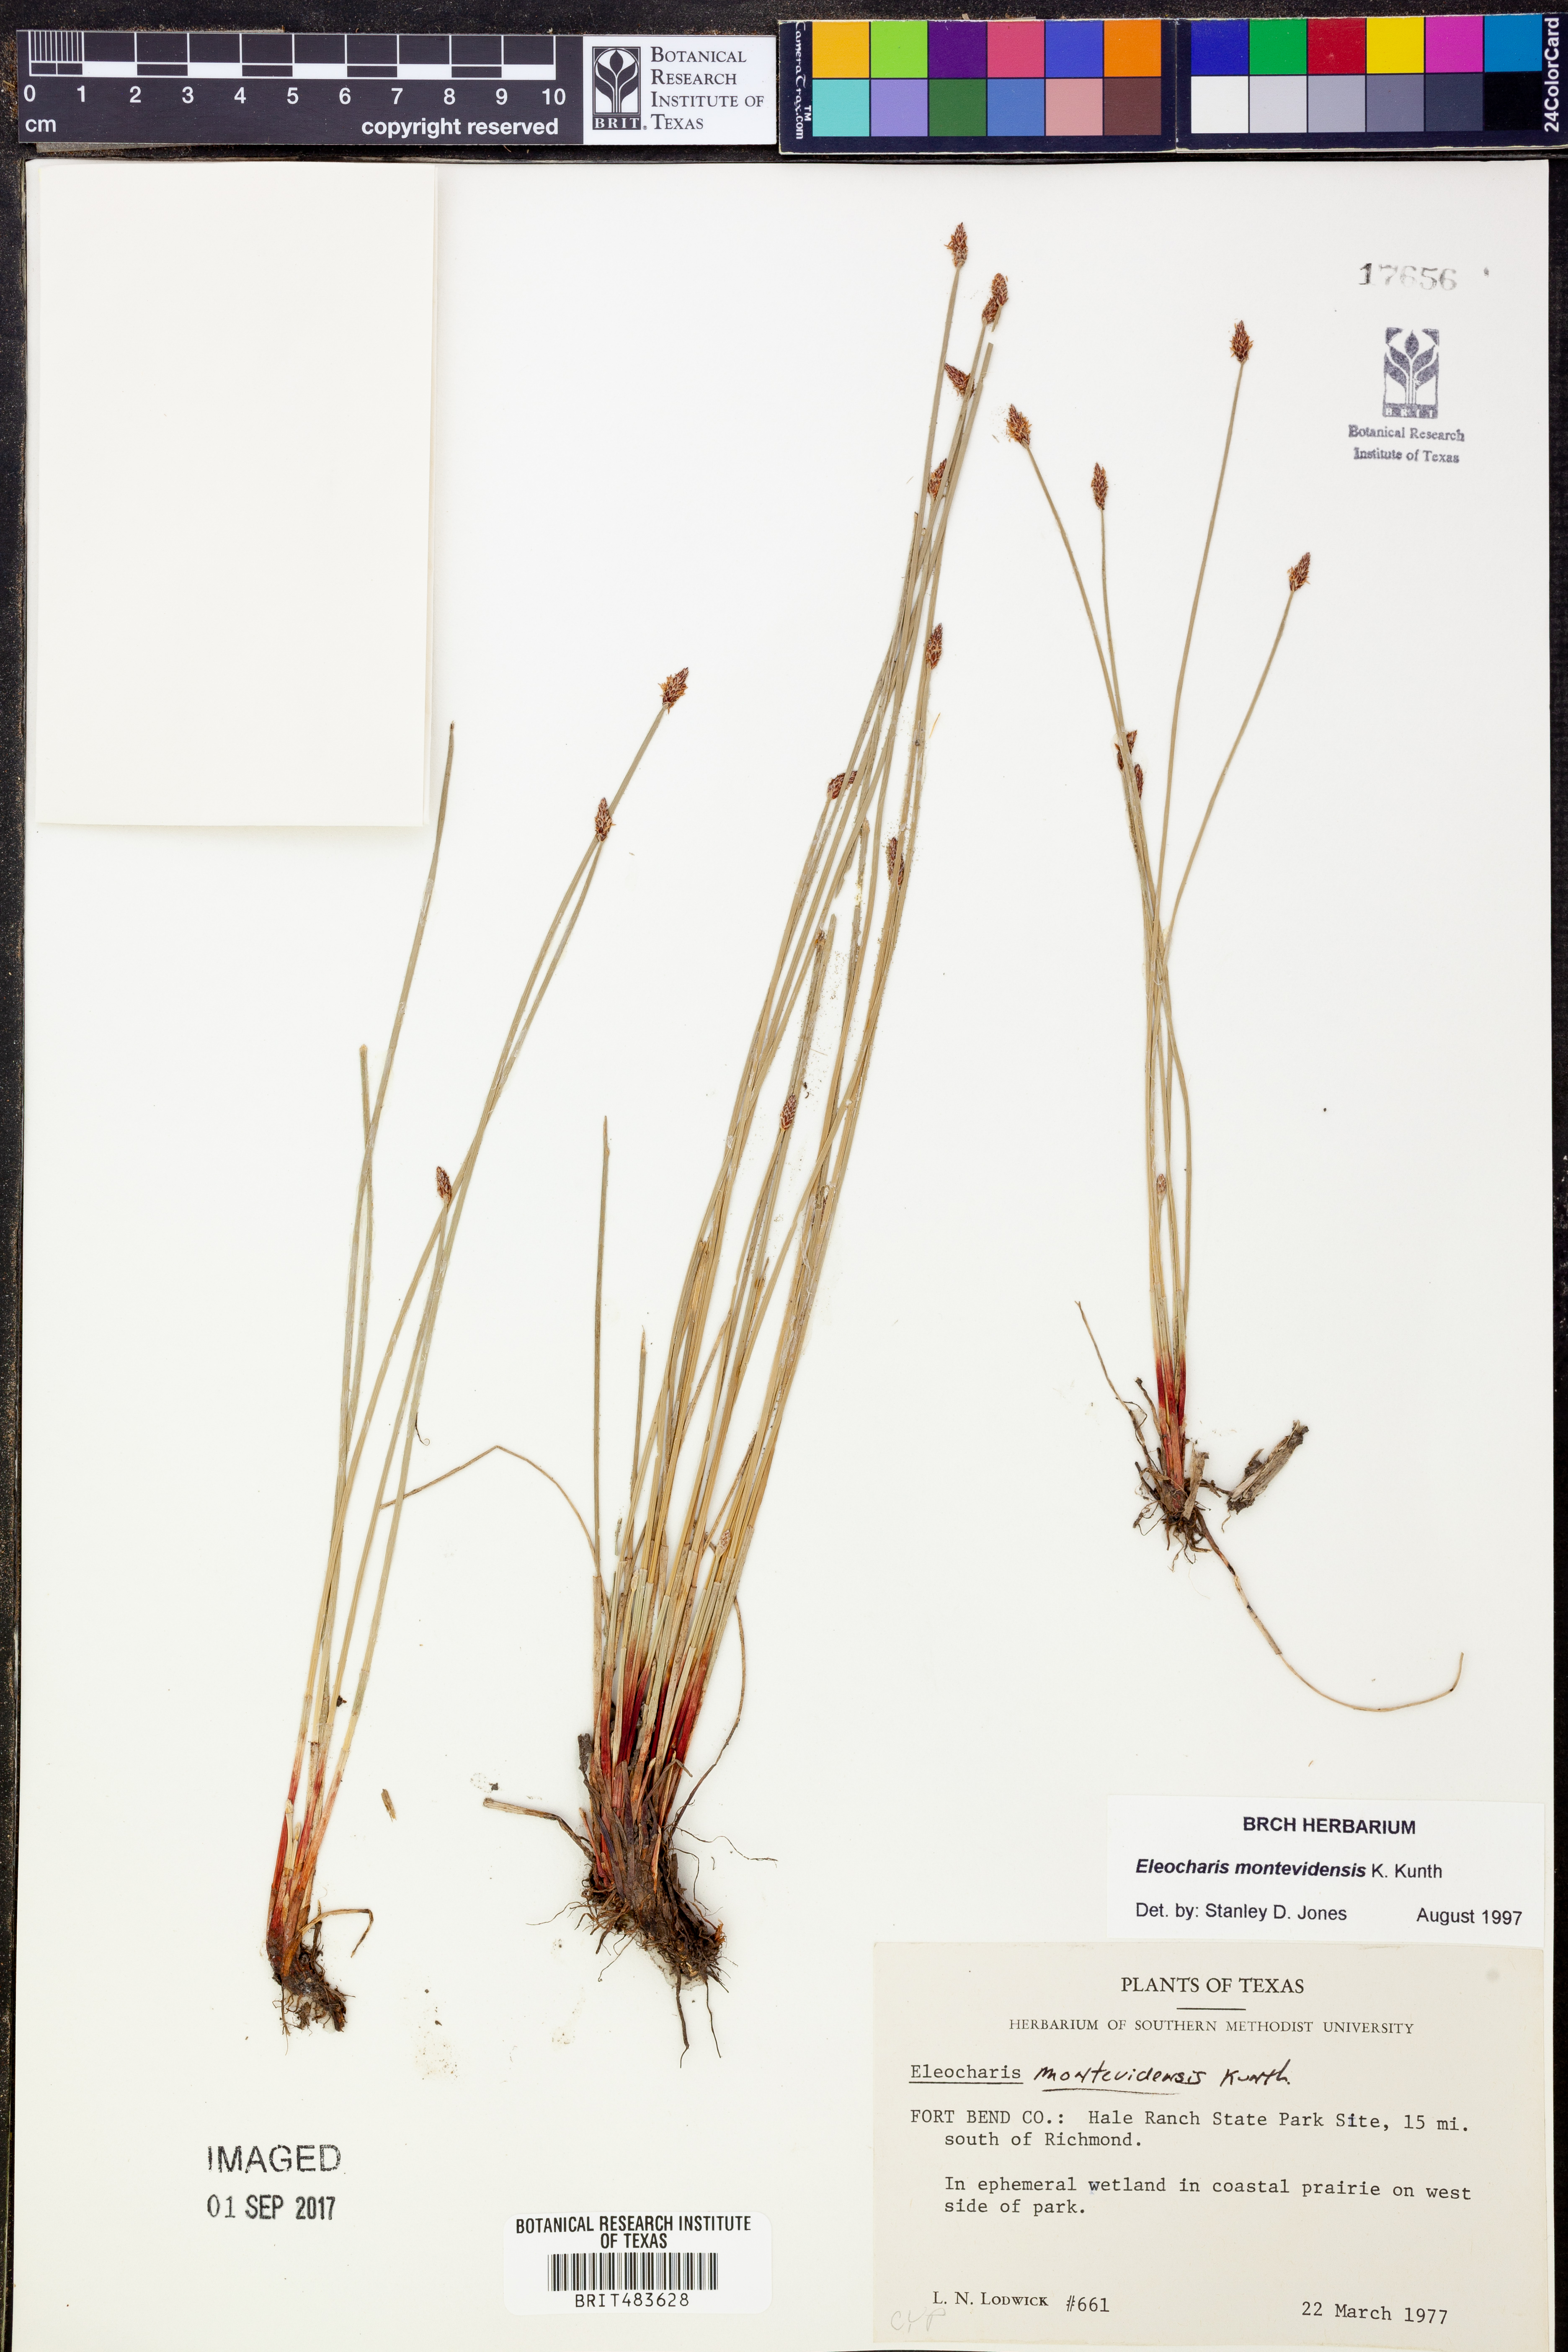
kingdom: Plantae
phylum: Tracheophyta
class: Liliopsida
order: Poales
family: Cyperaceae
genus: Eleocharis
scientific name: Eleocharis montevidensis
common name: Sand spike-rush
